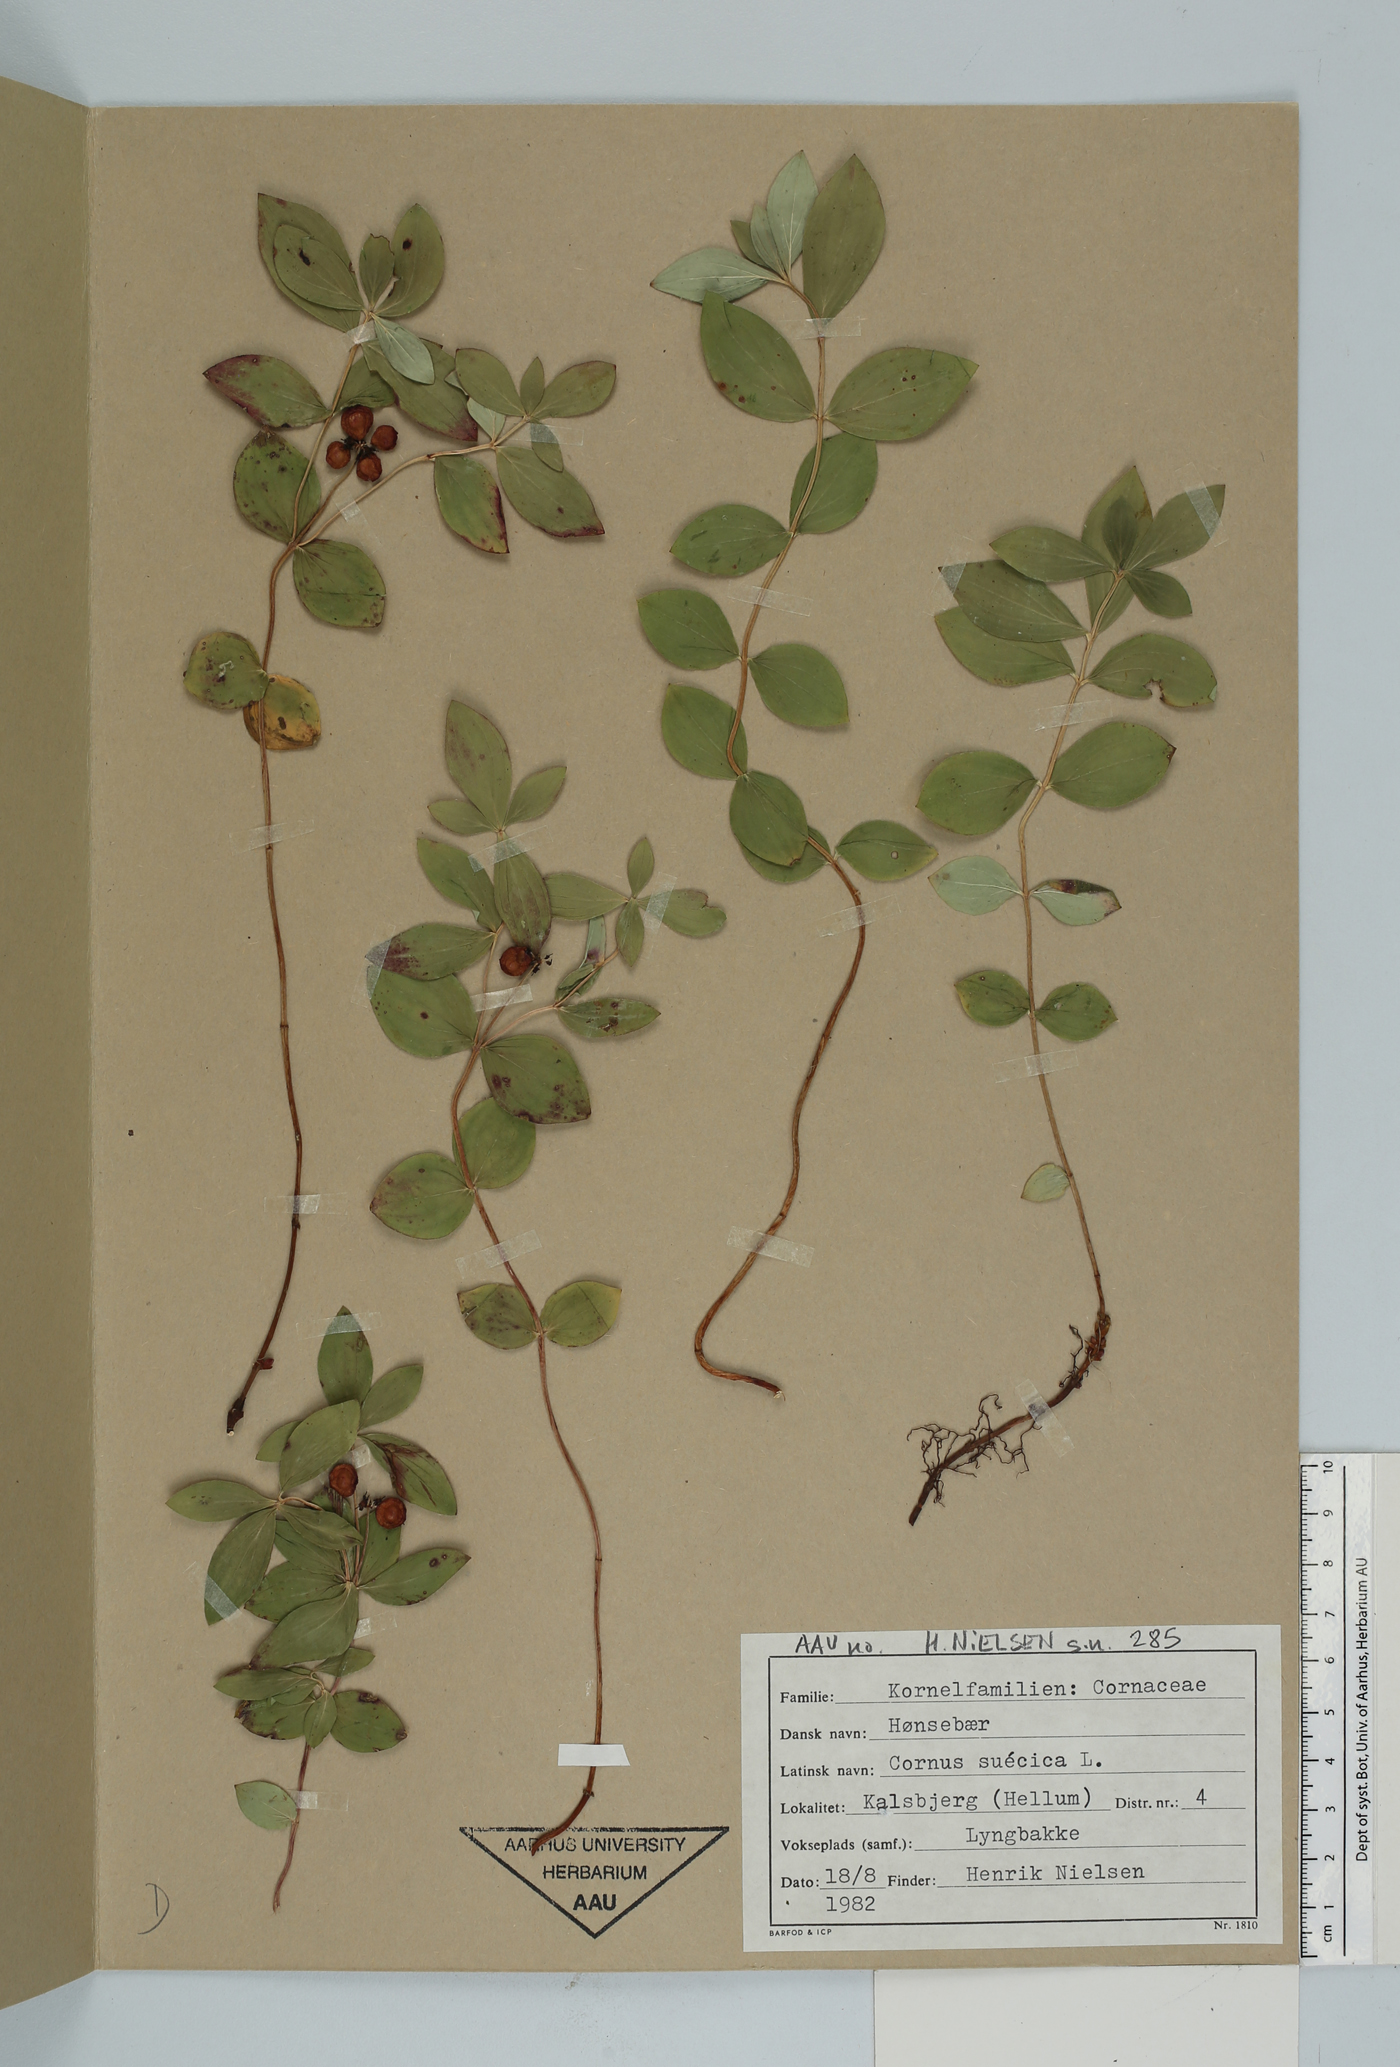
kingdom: Plantae
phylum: Tracheophyta
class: Magnoliopsida
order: Cornales
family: Cornaceae
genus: Cornus
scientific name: Cornus suecica
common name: Dwarf cornel
